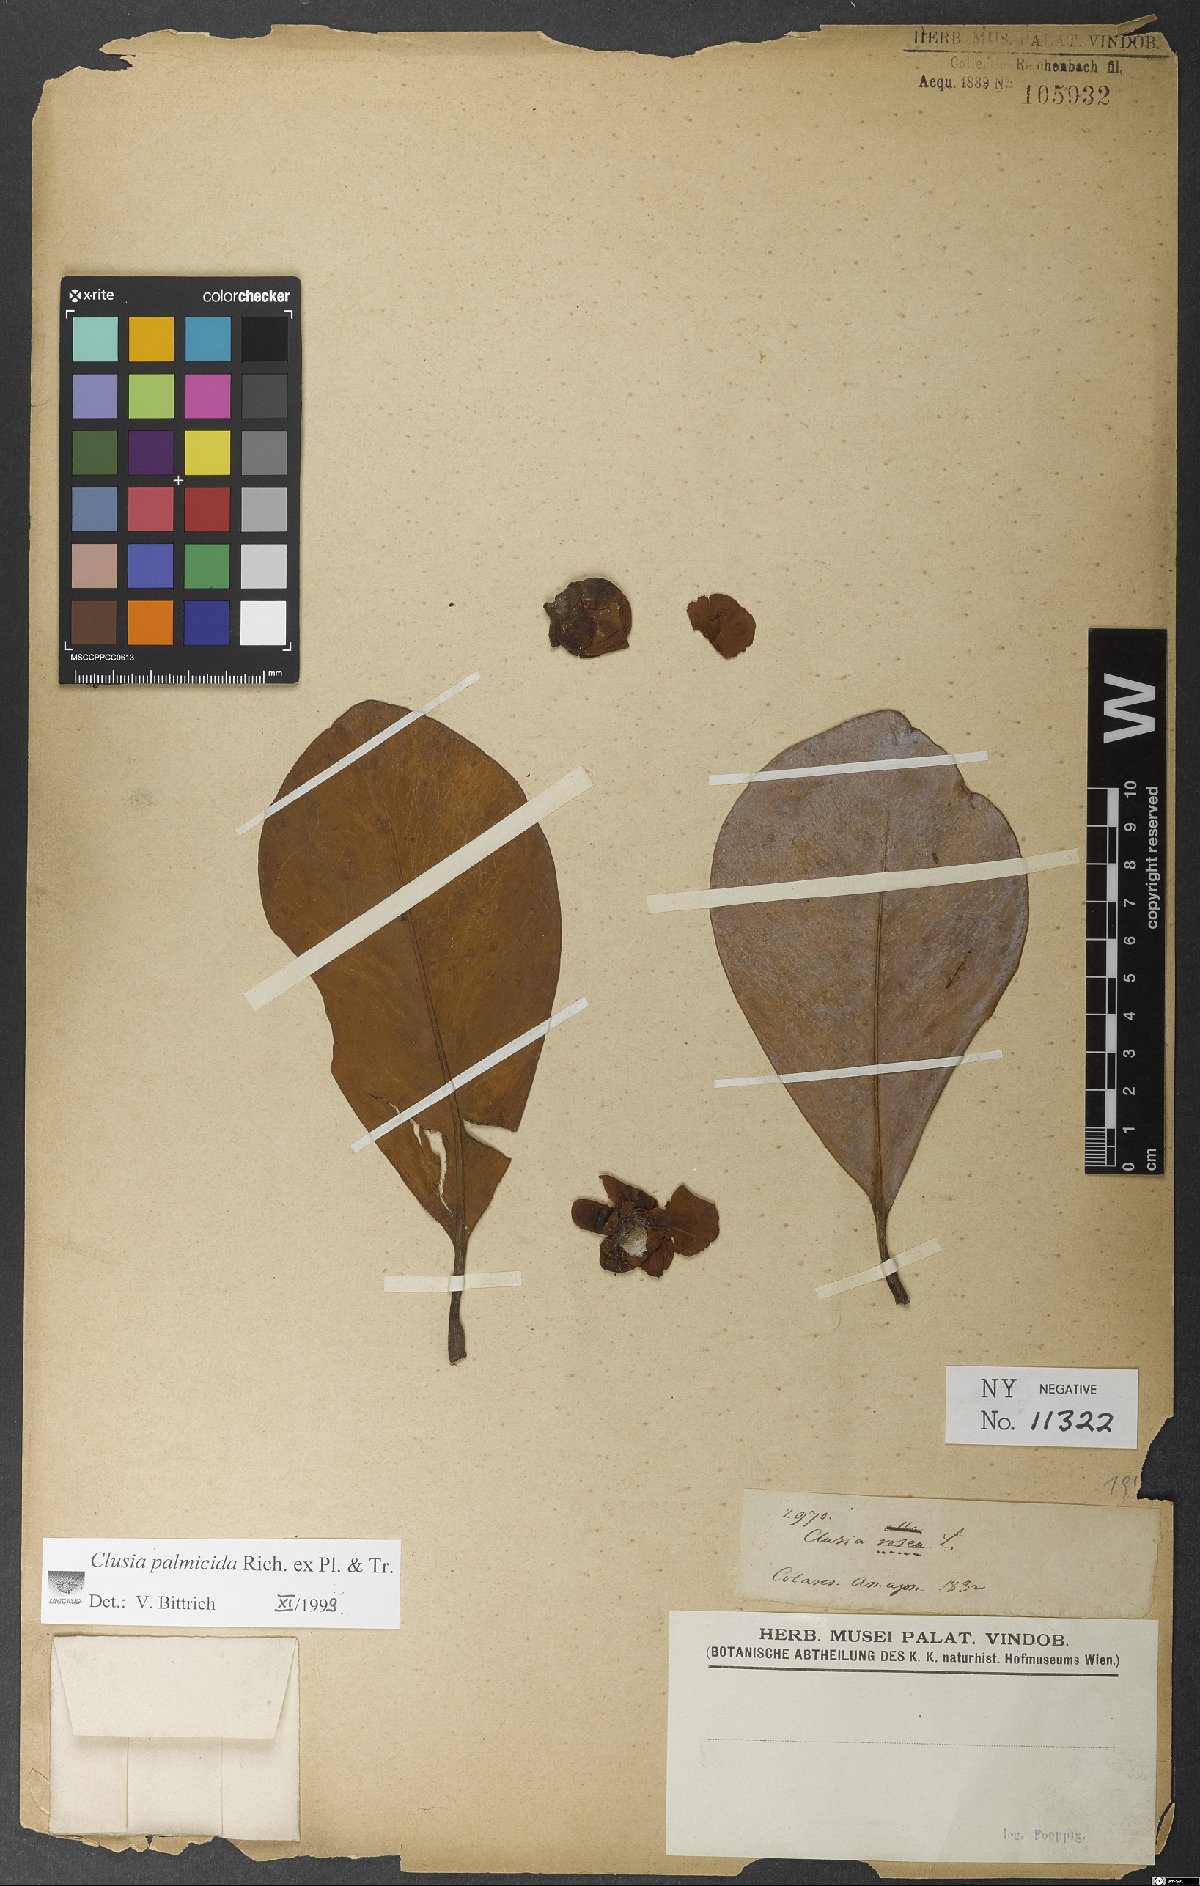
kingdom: Plantae
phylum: Tracheophyta
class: Magnoliopsida
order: Malpighiales
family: Clusiaceae
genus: Clusia
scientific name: Clusia palmicida
